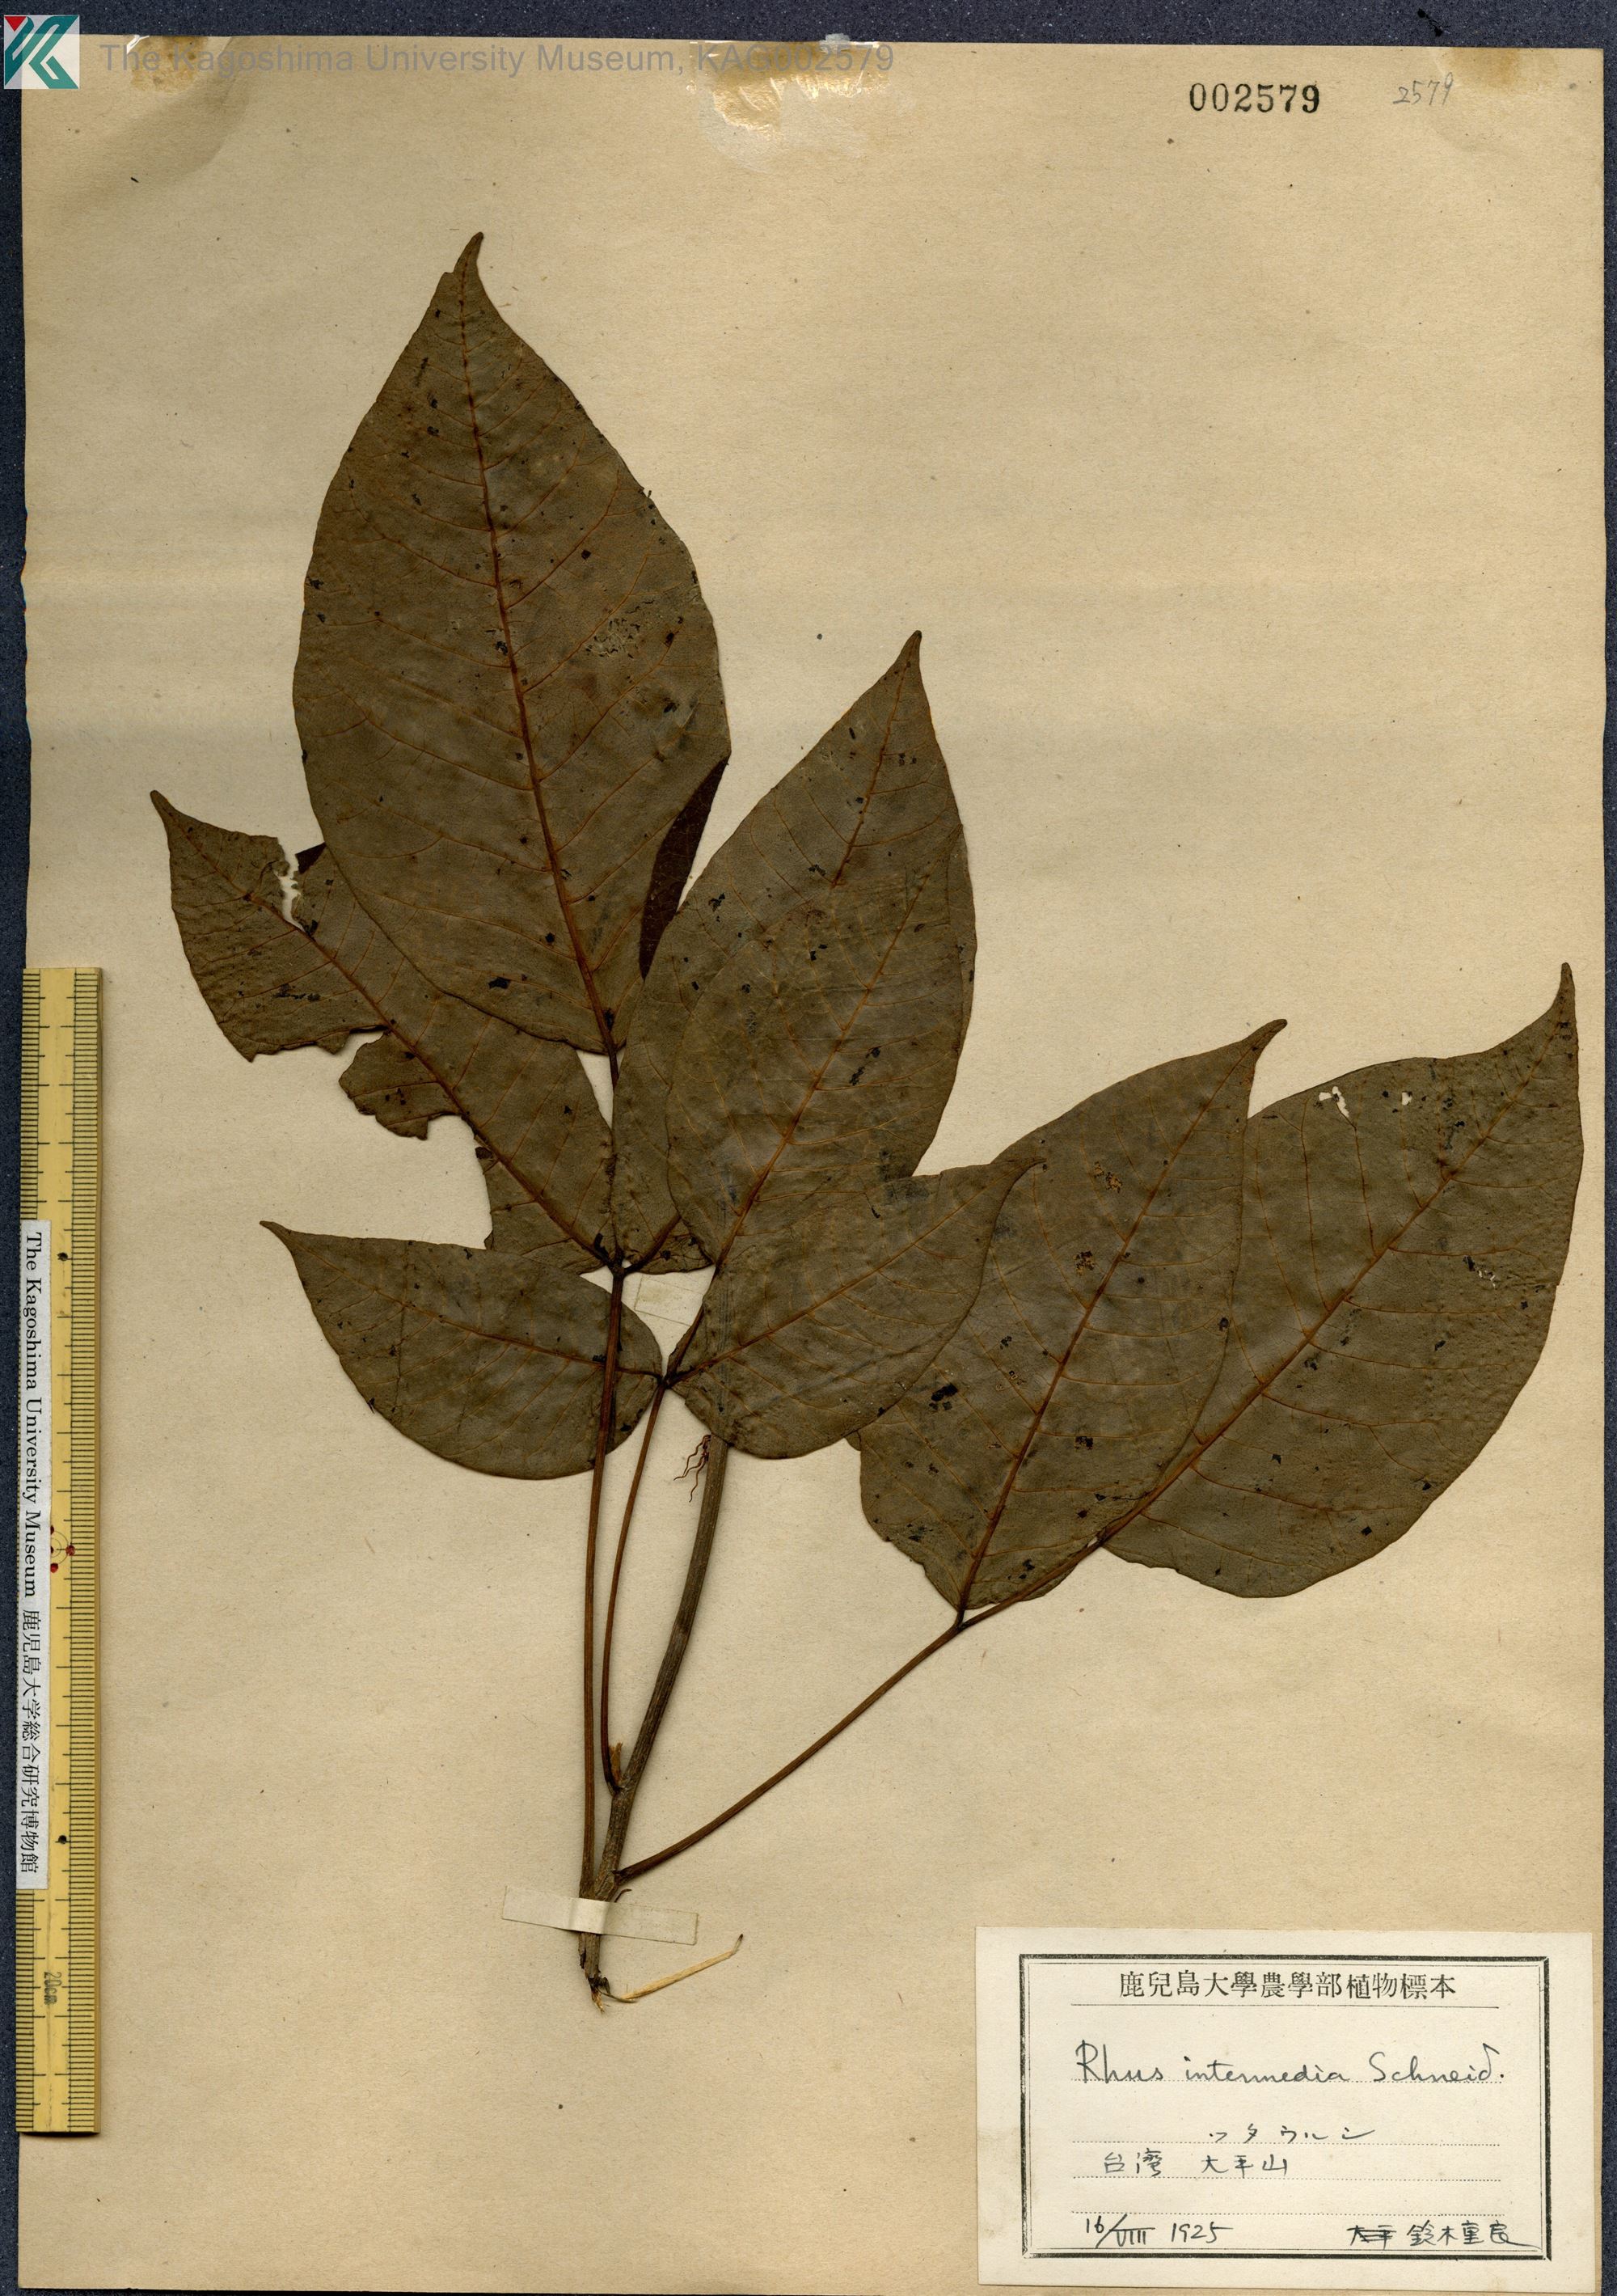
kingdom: Plantae
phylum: Tracheophyta
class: Magnoliopsida
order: Sapindales
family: Anacardiaceae
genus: Toxicodendron
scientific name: Toxicodendron orientale
